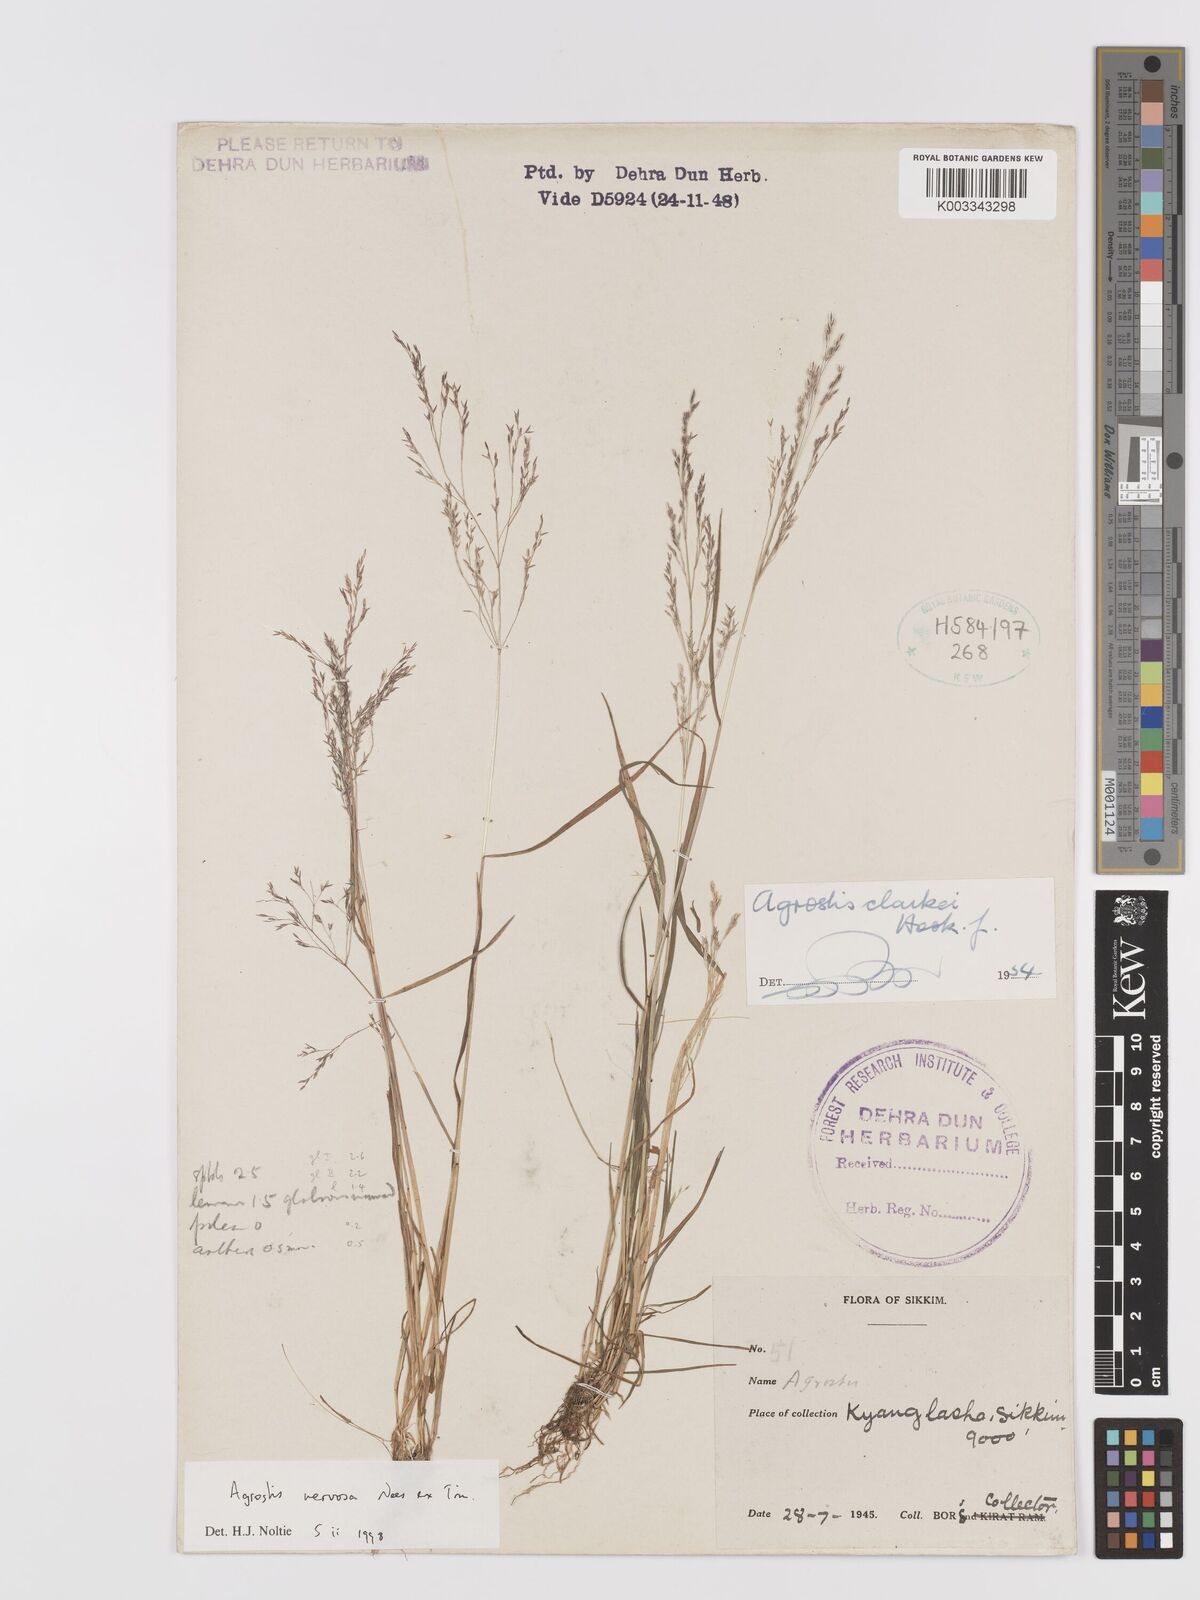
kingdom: Plantae
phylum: Tracheophyta
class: Liliopsida
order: Poales
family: Poaceae
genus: Agrostis
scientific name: Agrostis nervosa
